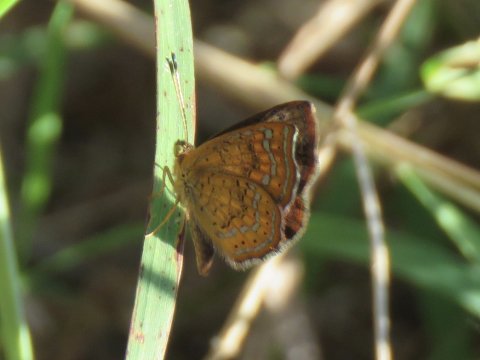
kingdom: Animalia
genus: Calephelis
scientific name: Calephelis nemesis
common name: Fatal Metalmark
